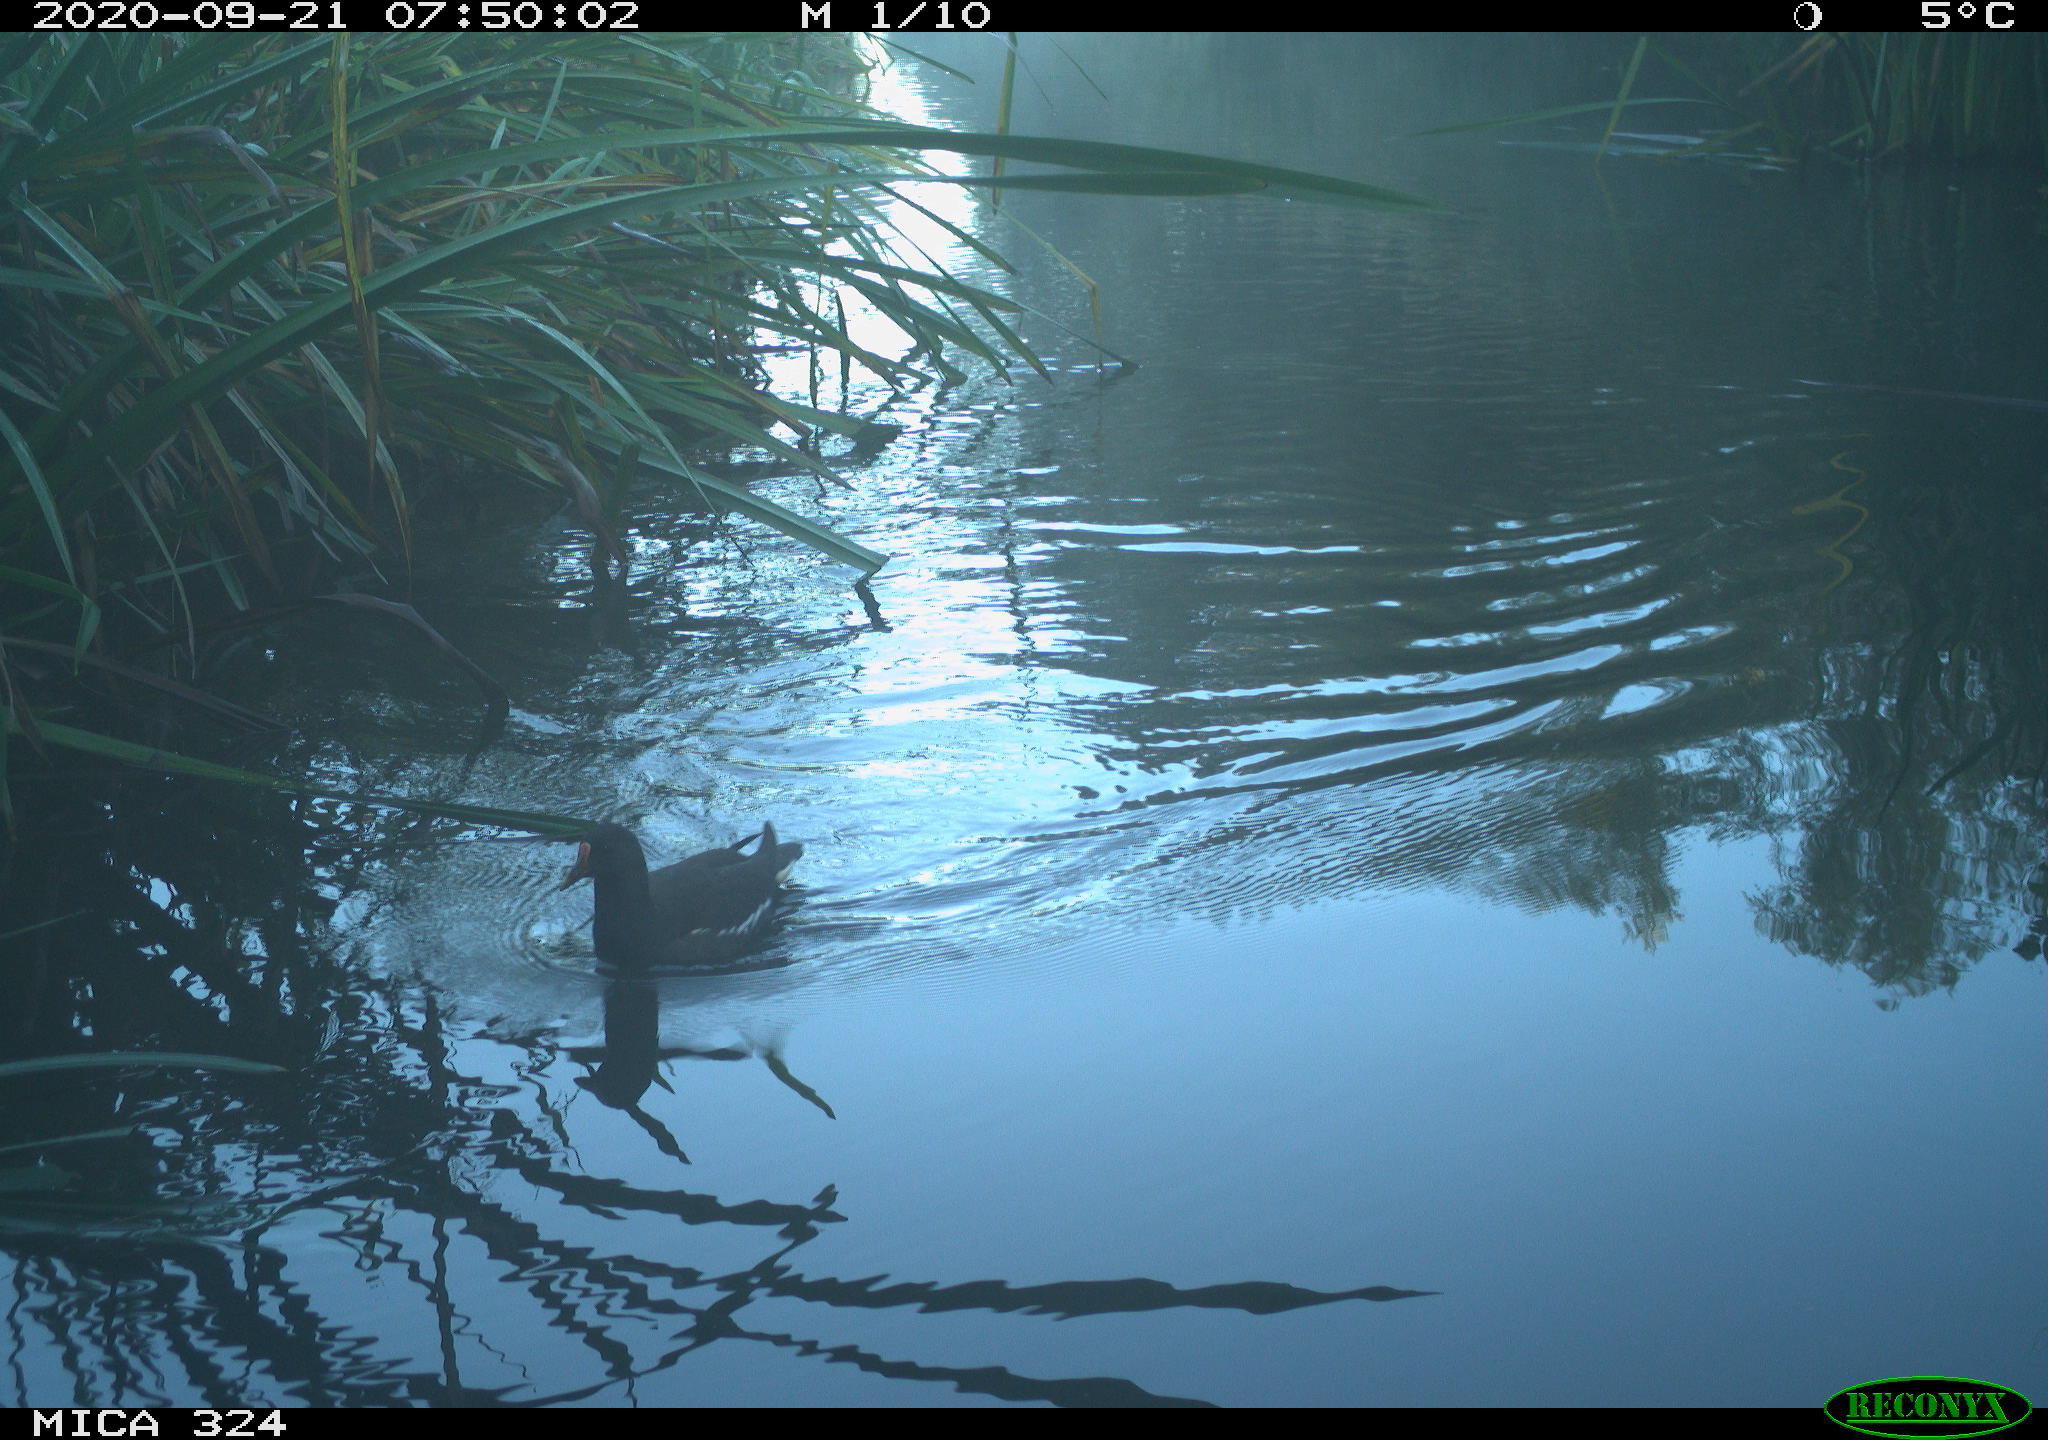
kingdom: Animalia
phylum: Chordata
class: Aves
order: Gruiformes
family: Rallidae
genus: Gallinula
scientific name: Gallinula chloropus
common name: Common moorhen
